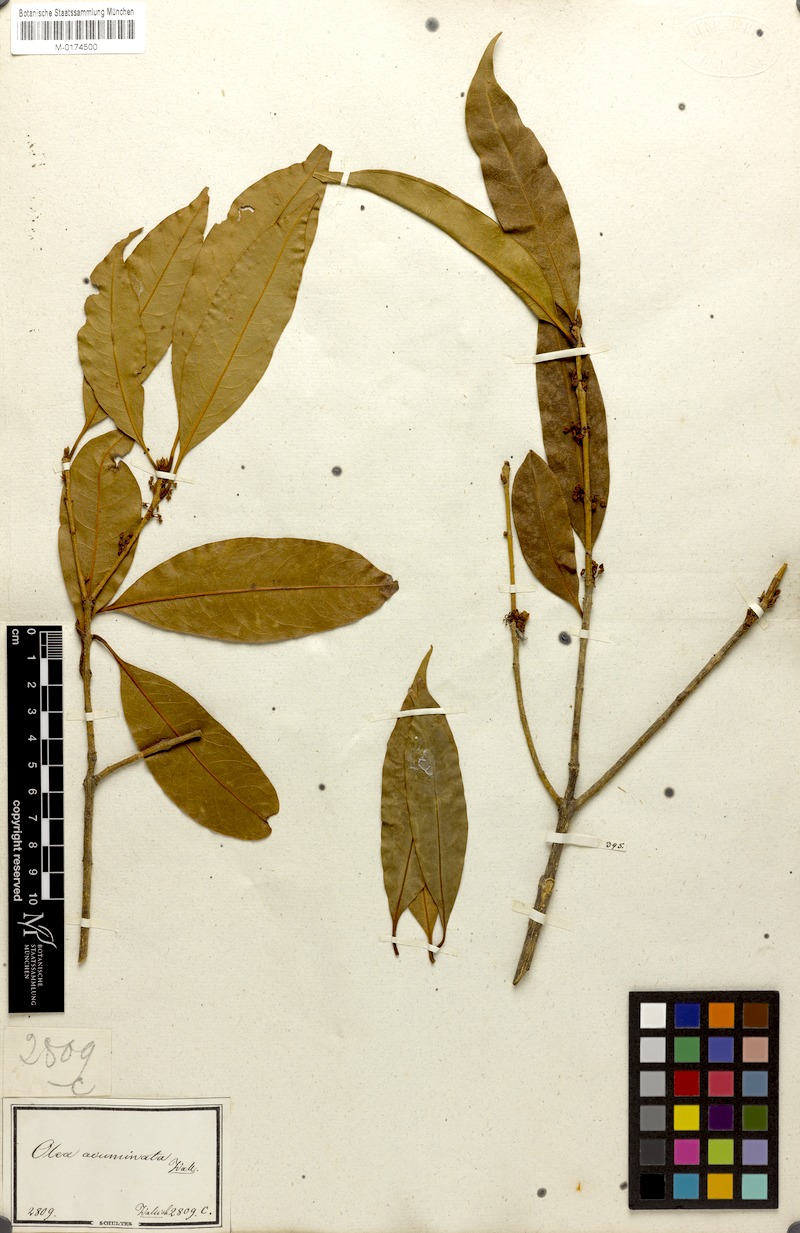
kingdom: Plantae
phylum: Tracheophyta
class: Magnoliopsida
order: Lamiales
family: Oleaceae
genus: Osmanthus
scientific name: Osmanthus fragrans
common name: Sweet osmanthus
